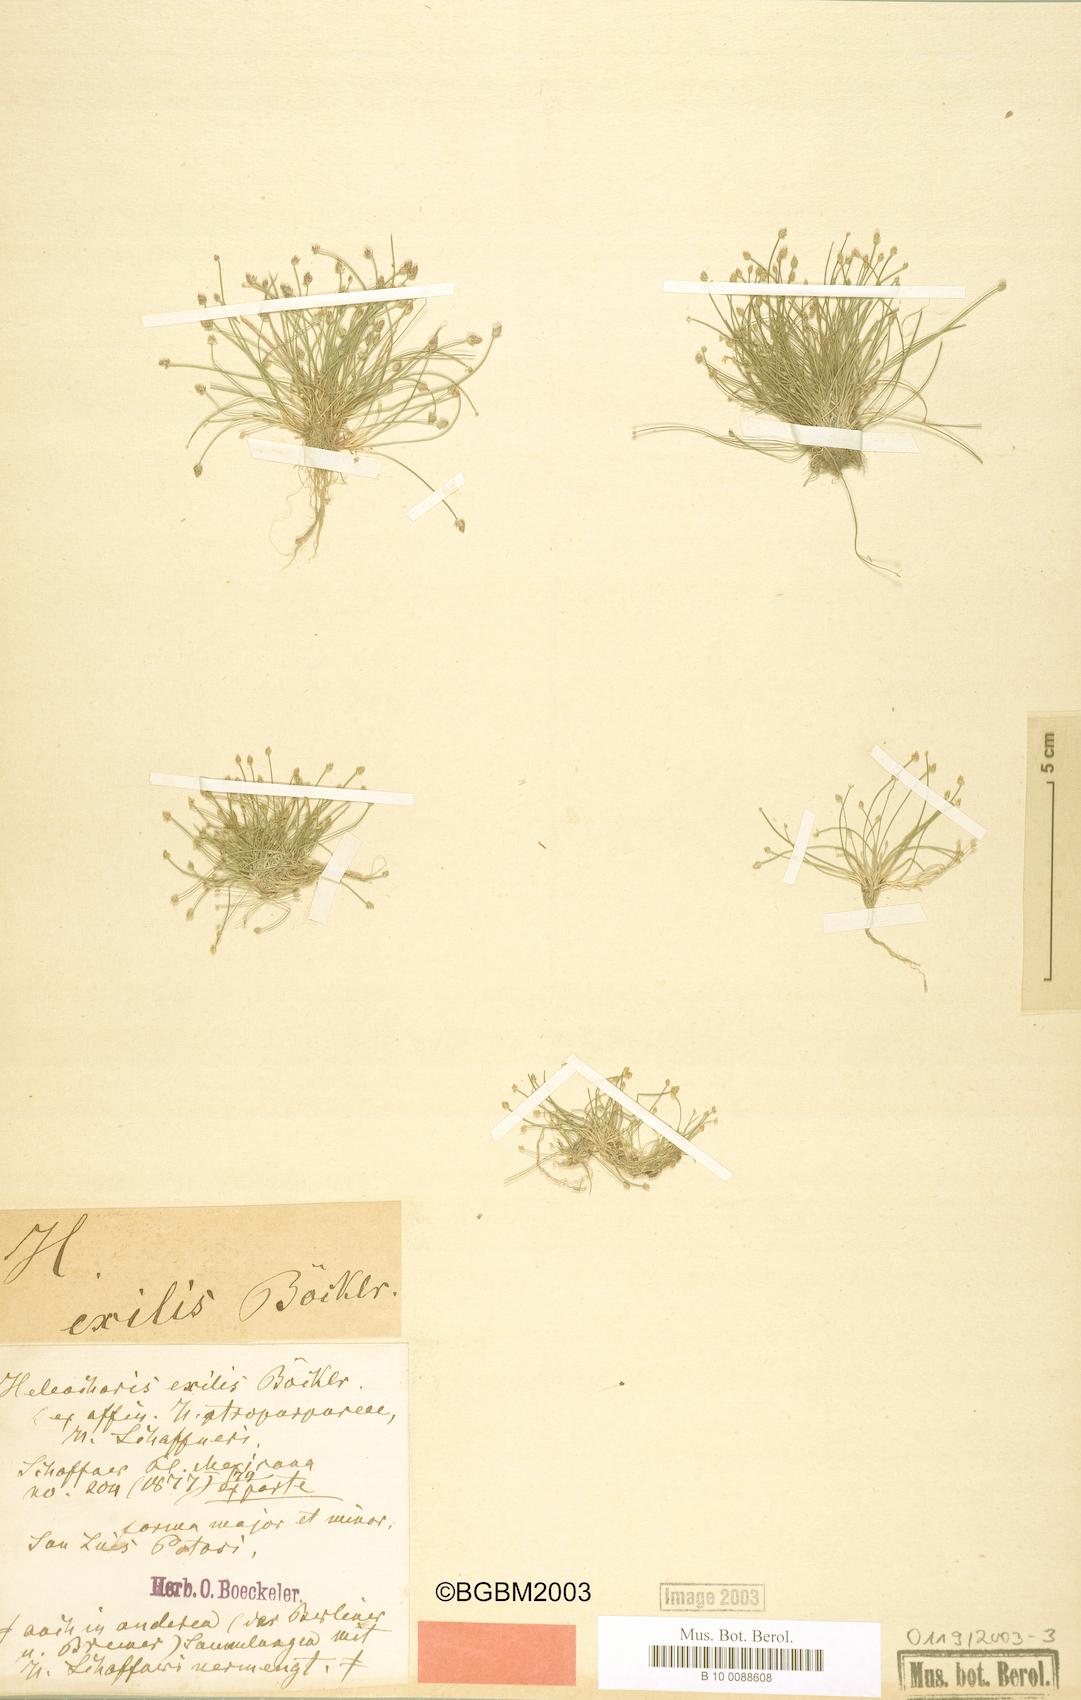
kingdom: Plantae
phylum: Tracheophyta
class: Magnoliopsida
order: Malpighiales
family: Euphorbiaceae
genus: Croton
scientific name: Croton vestitus
